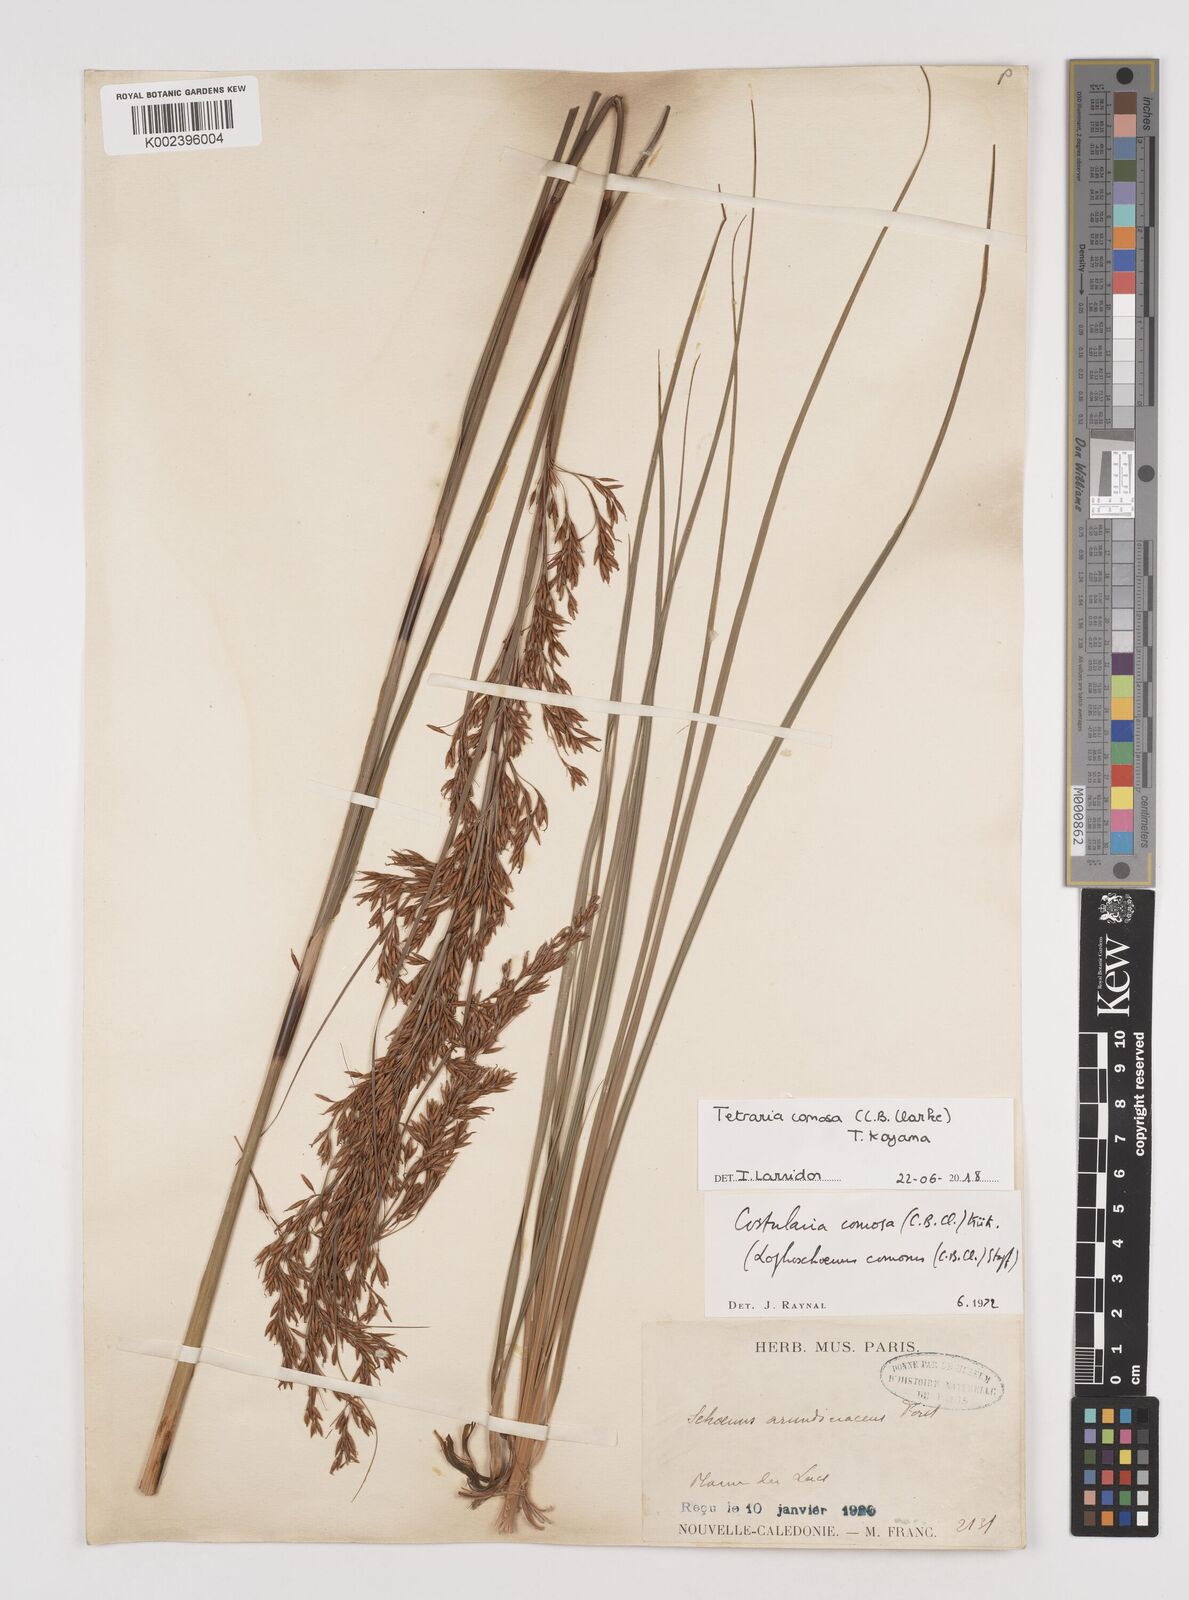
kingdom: Plantae
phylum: Tracheophyta
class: Liliopsida
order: Poales
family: Cyperaceae
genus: Tetraria
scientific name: Tetraria comosa
